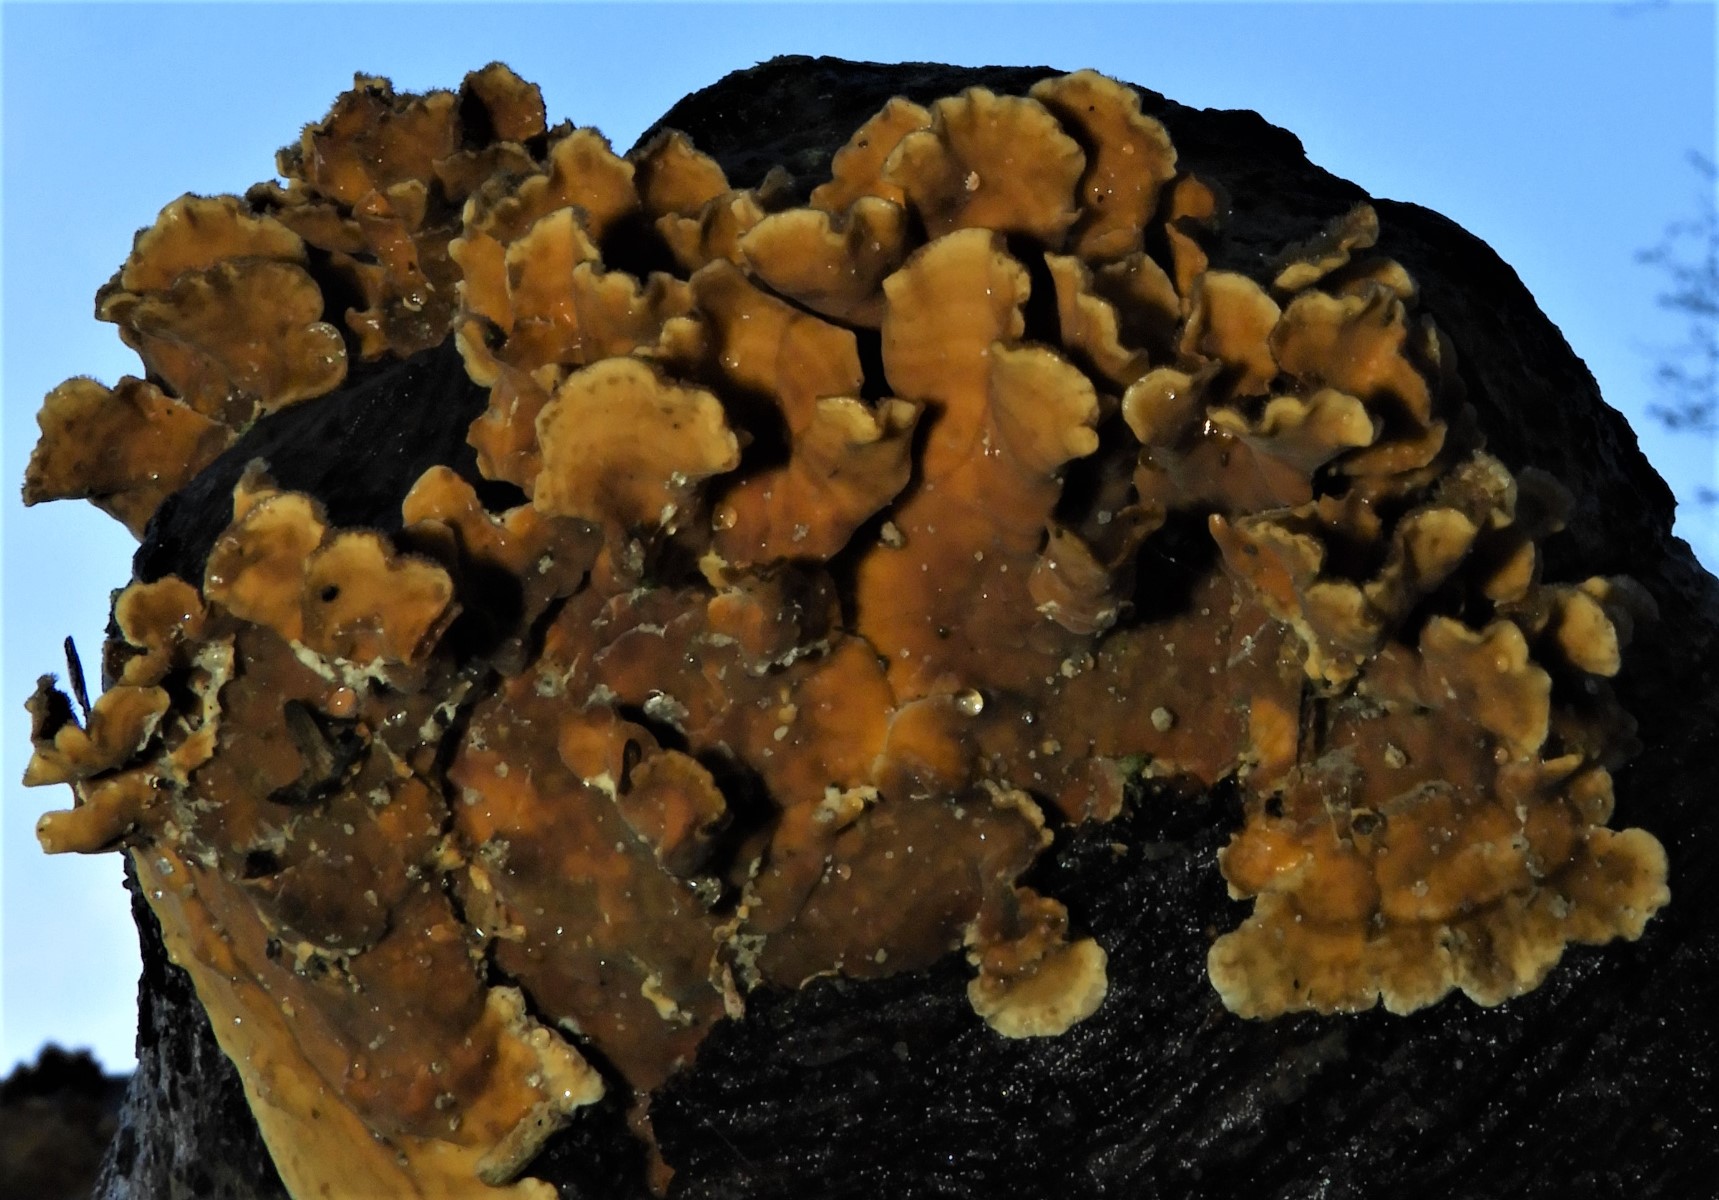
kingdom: Fungi
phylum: Basidiomycota
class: Agaricomycetes
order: Russulales
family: Stereaceae
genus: Stereum
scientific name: Stereum hirsutum
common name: håret lædersvamp
